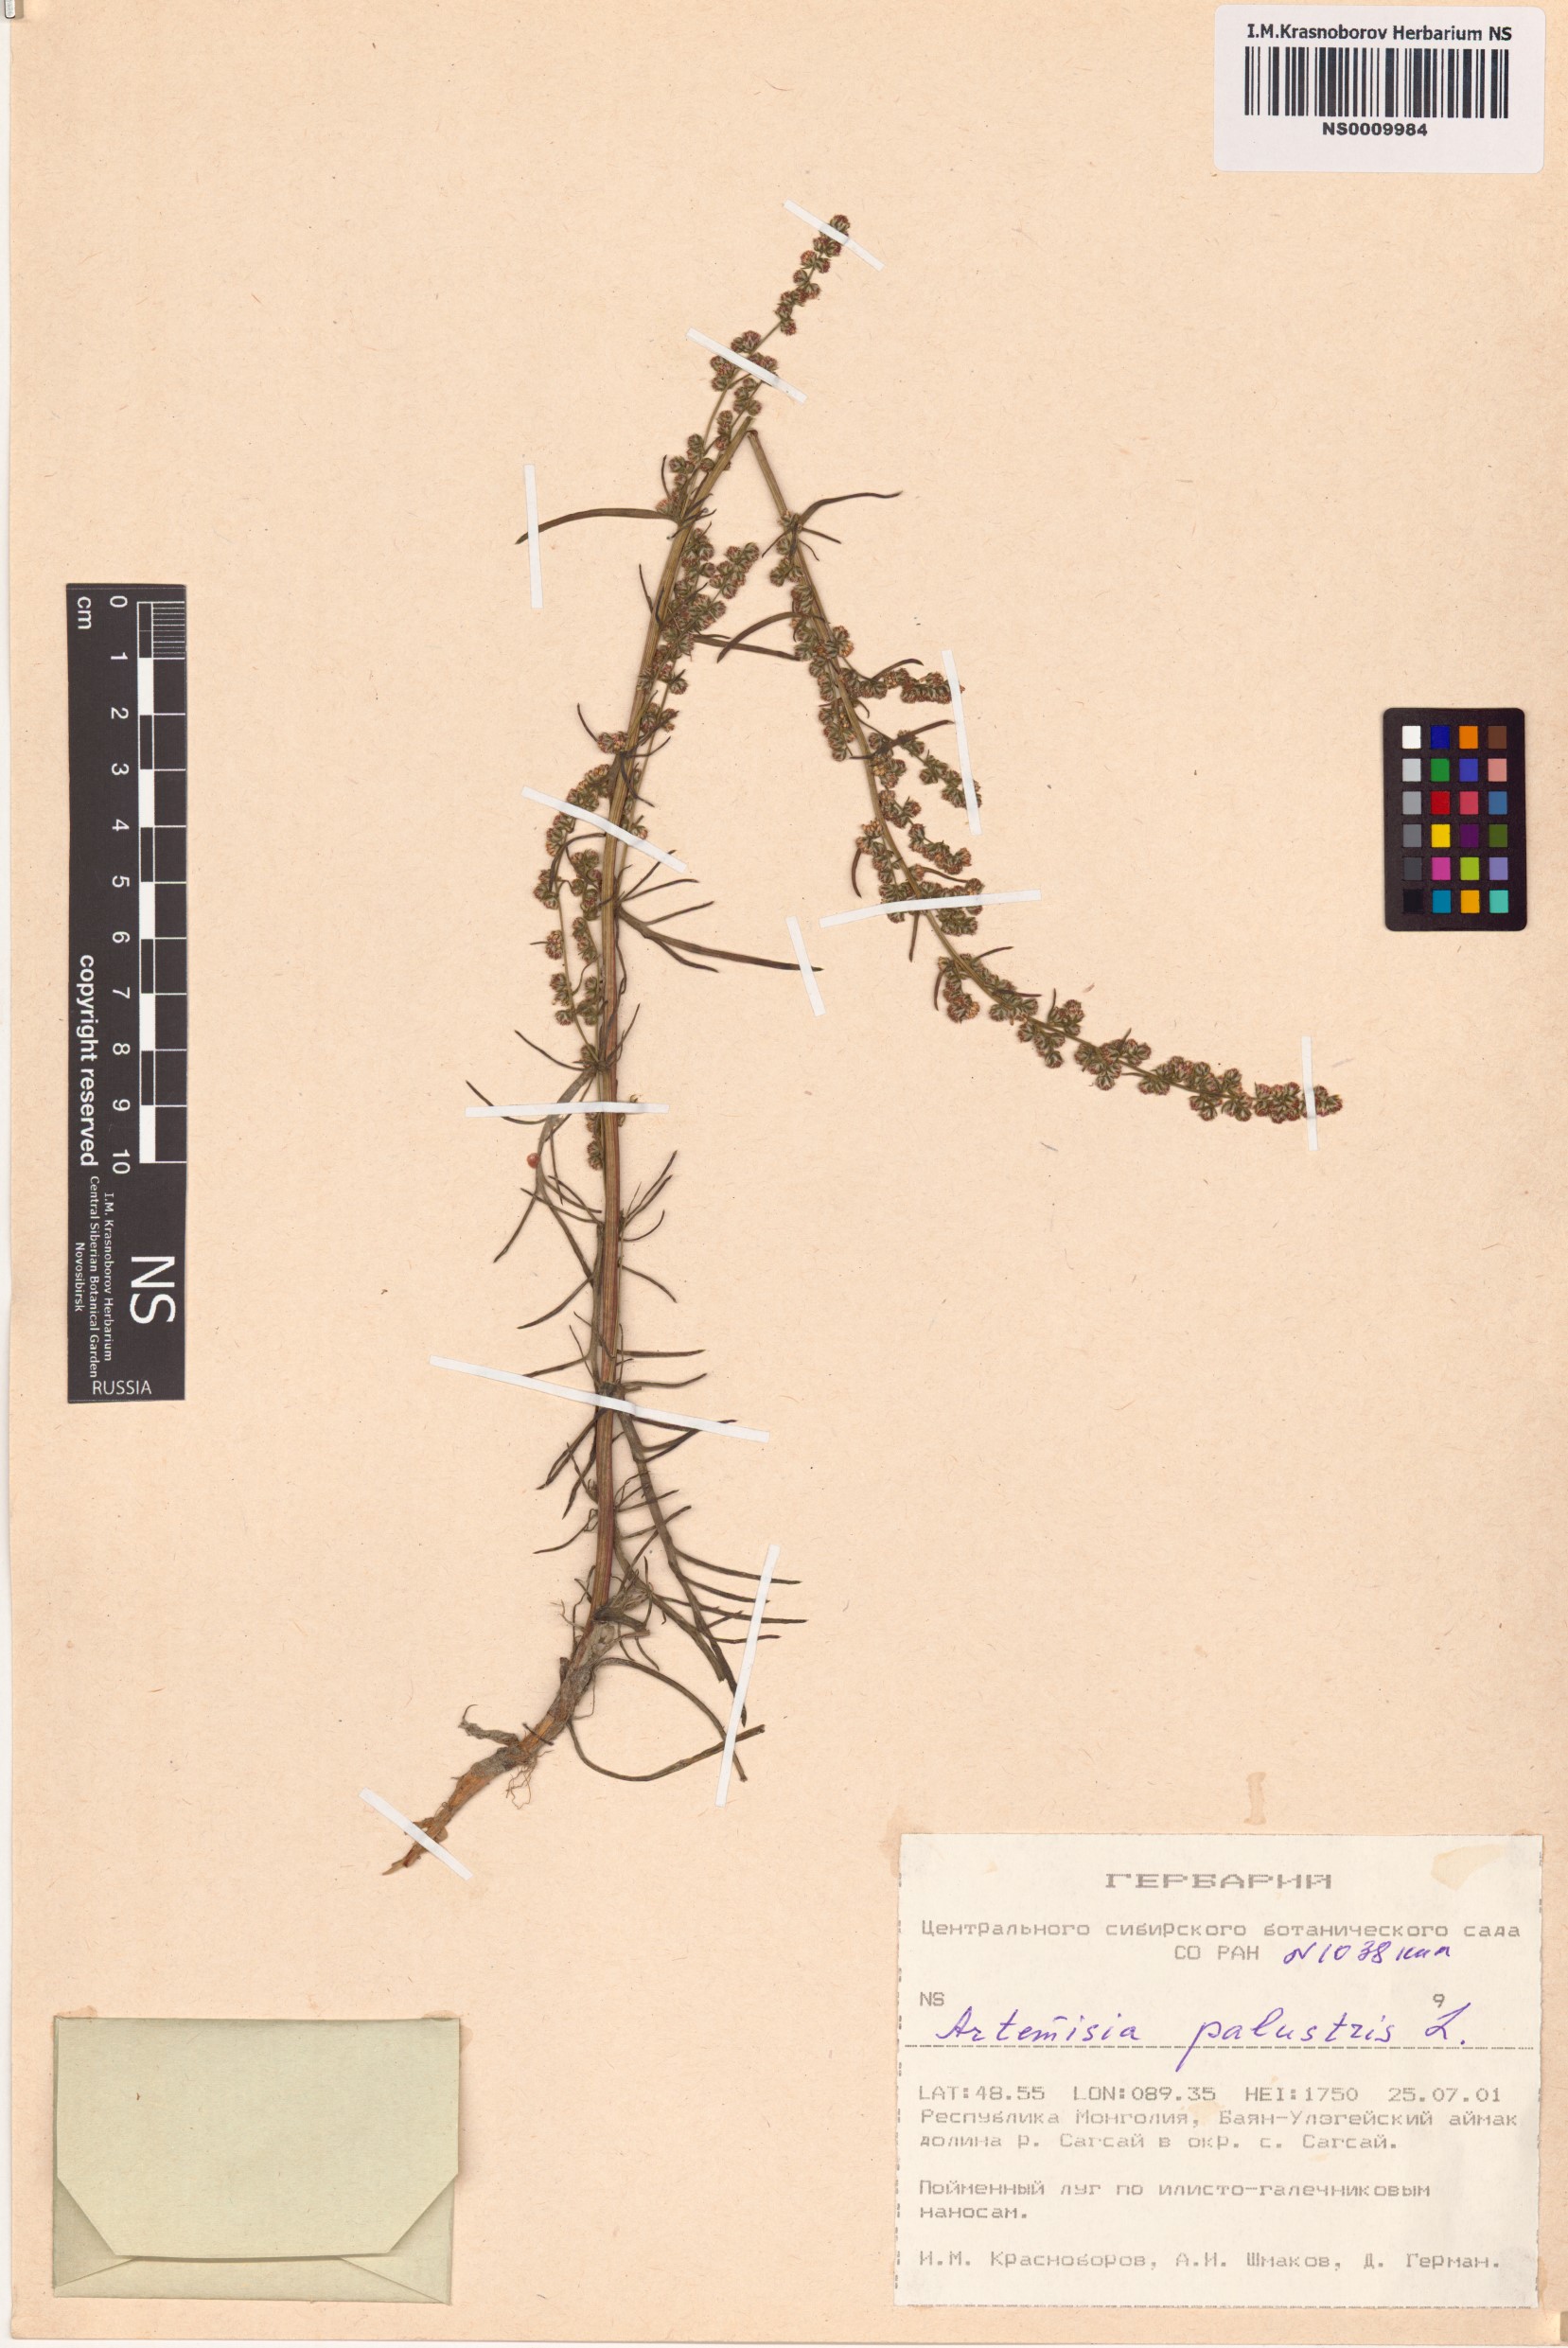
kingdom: Plantae
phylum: Tracheophyta
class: Magnoliopsida
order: Asterales
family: Asteraceae
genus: Artemisia
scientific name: Artemisia palustris
